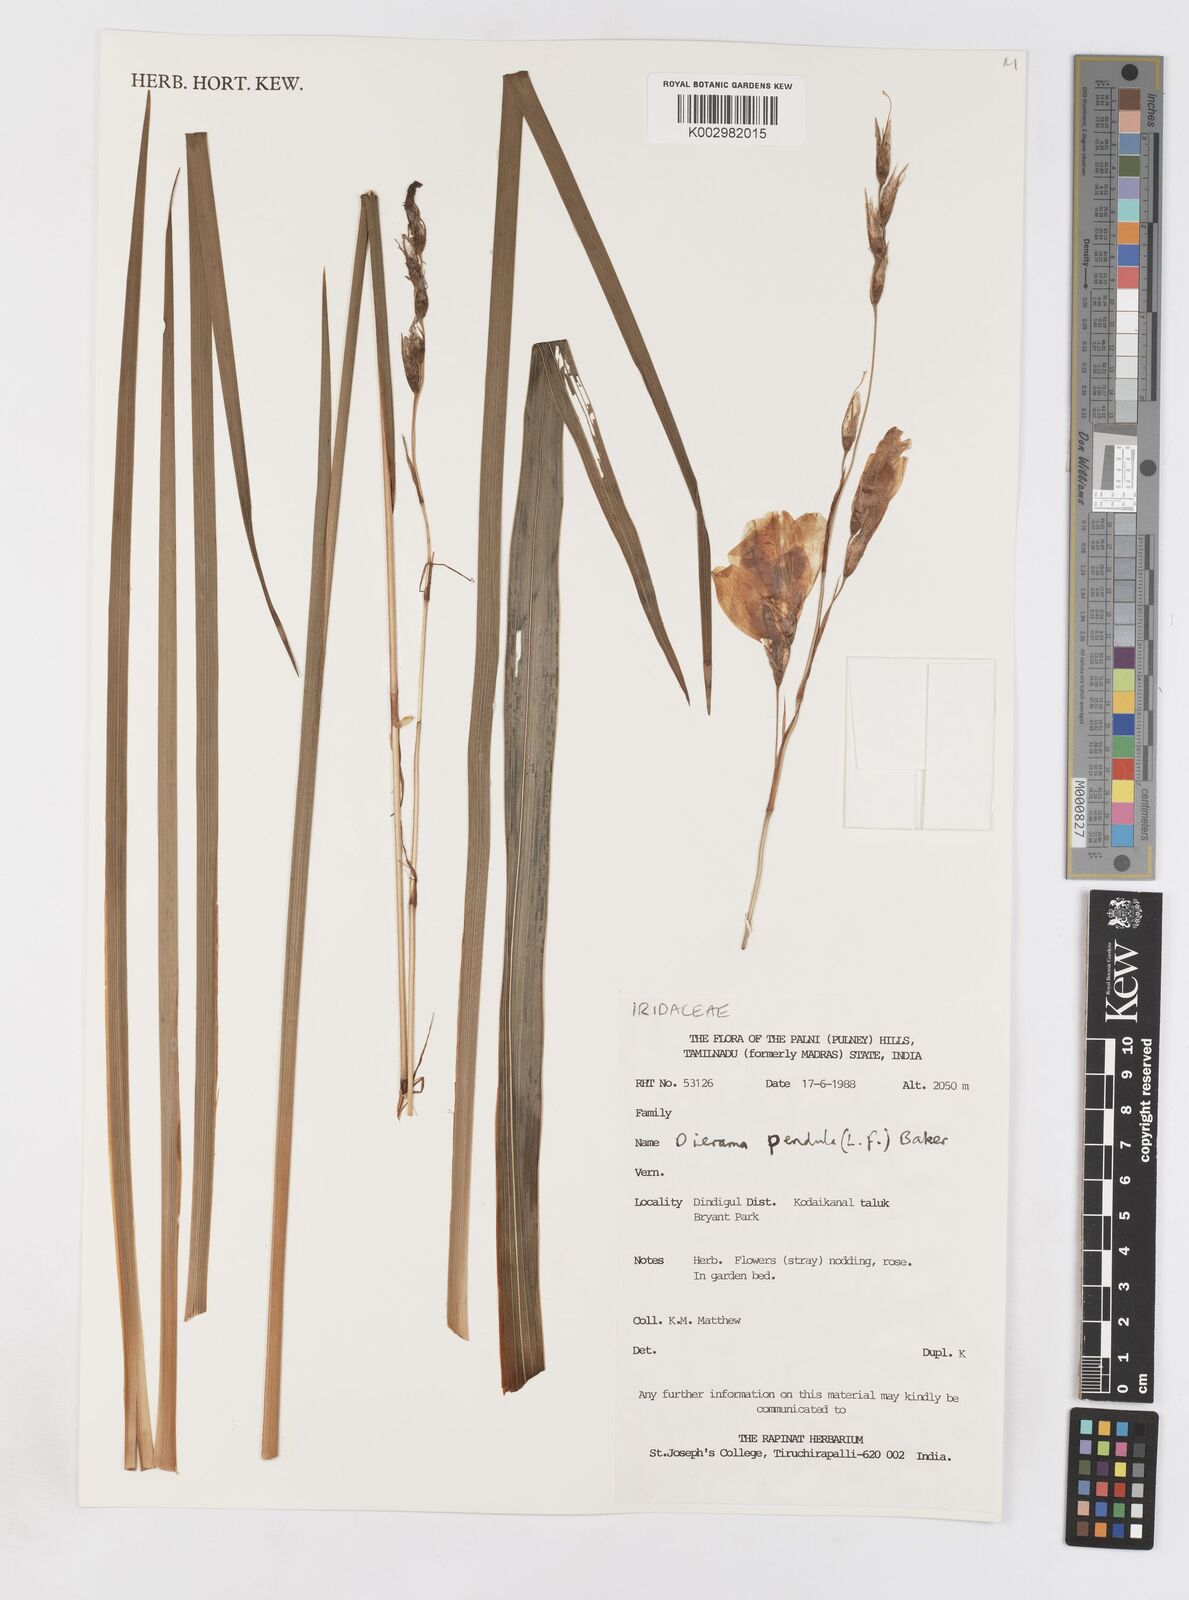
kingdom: Plantae
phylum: Tracheophyta
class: Liliopsida
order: Asparagales
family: Iridaceae
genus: Dierama
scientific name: Dierama pendulum
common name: Grassy-bell
